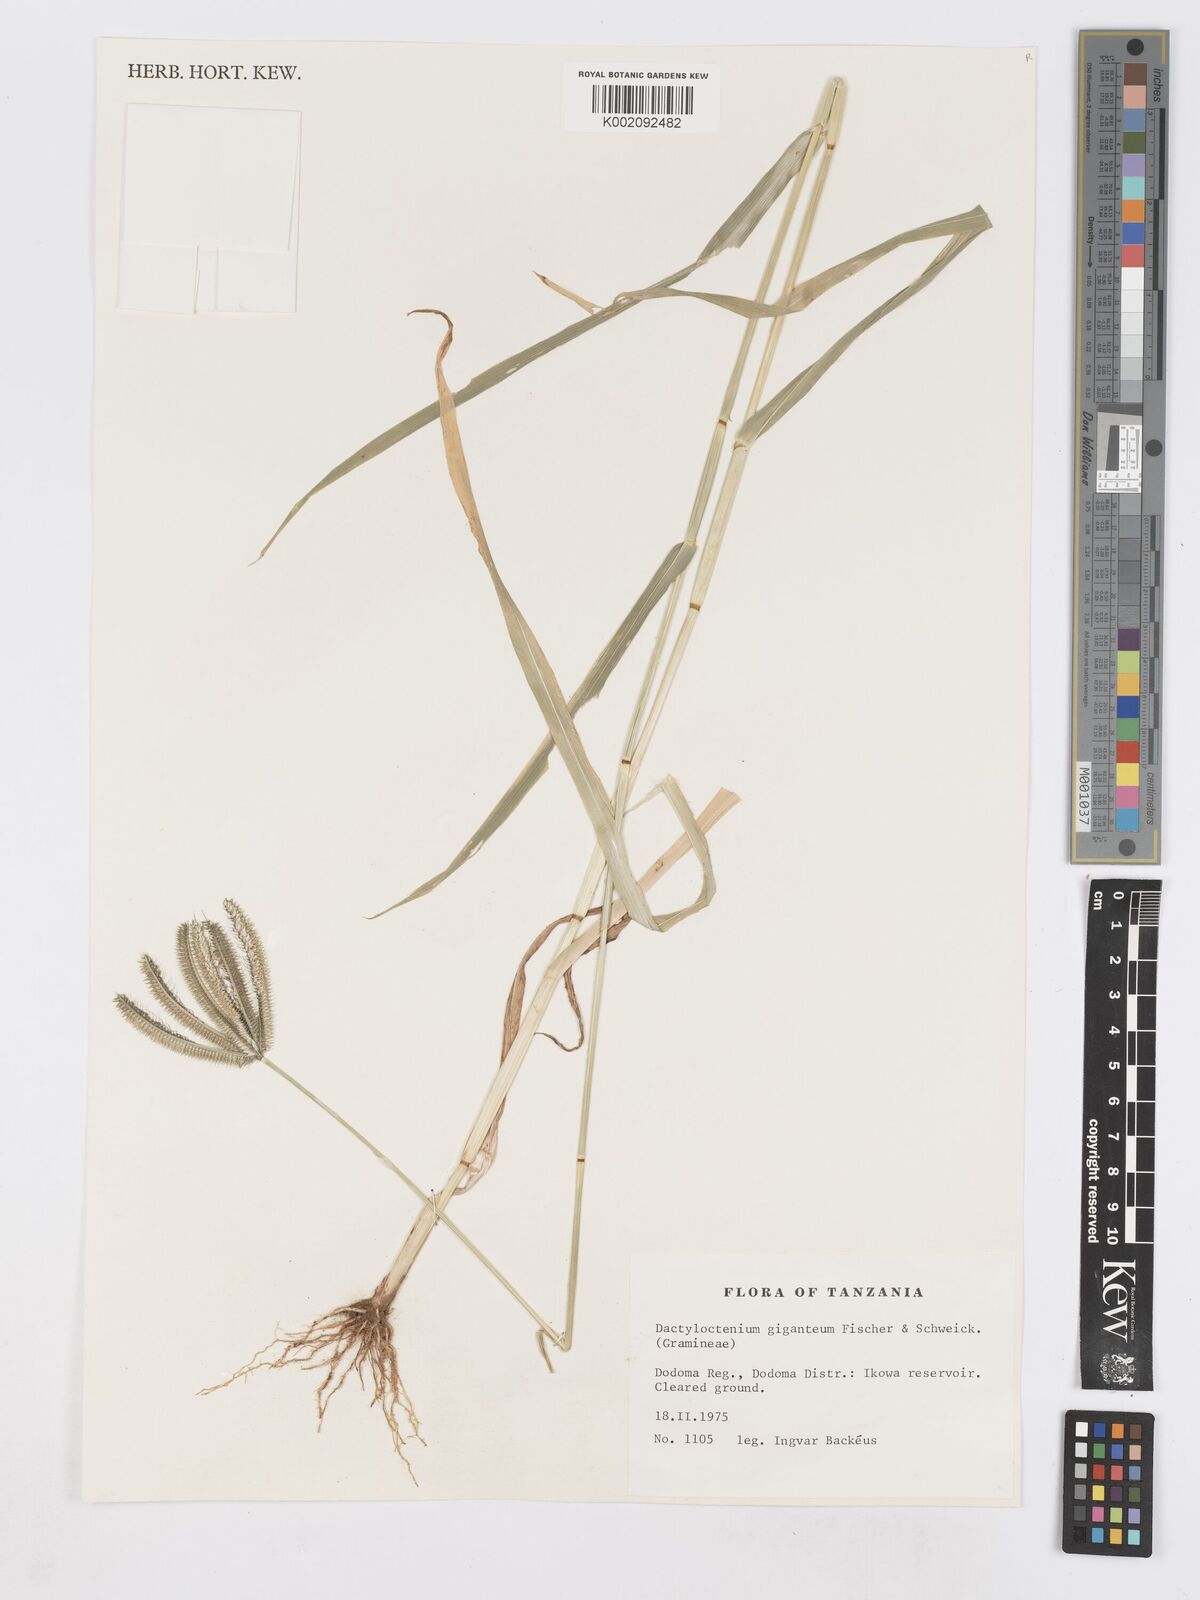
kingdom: Plantae
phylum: Tracheophyta
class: Liliopsida
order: Poales
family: Poaceae
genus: Dactyloctenium
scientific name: Dactyloctenium giganteum
